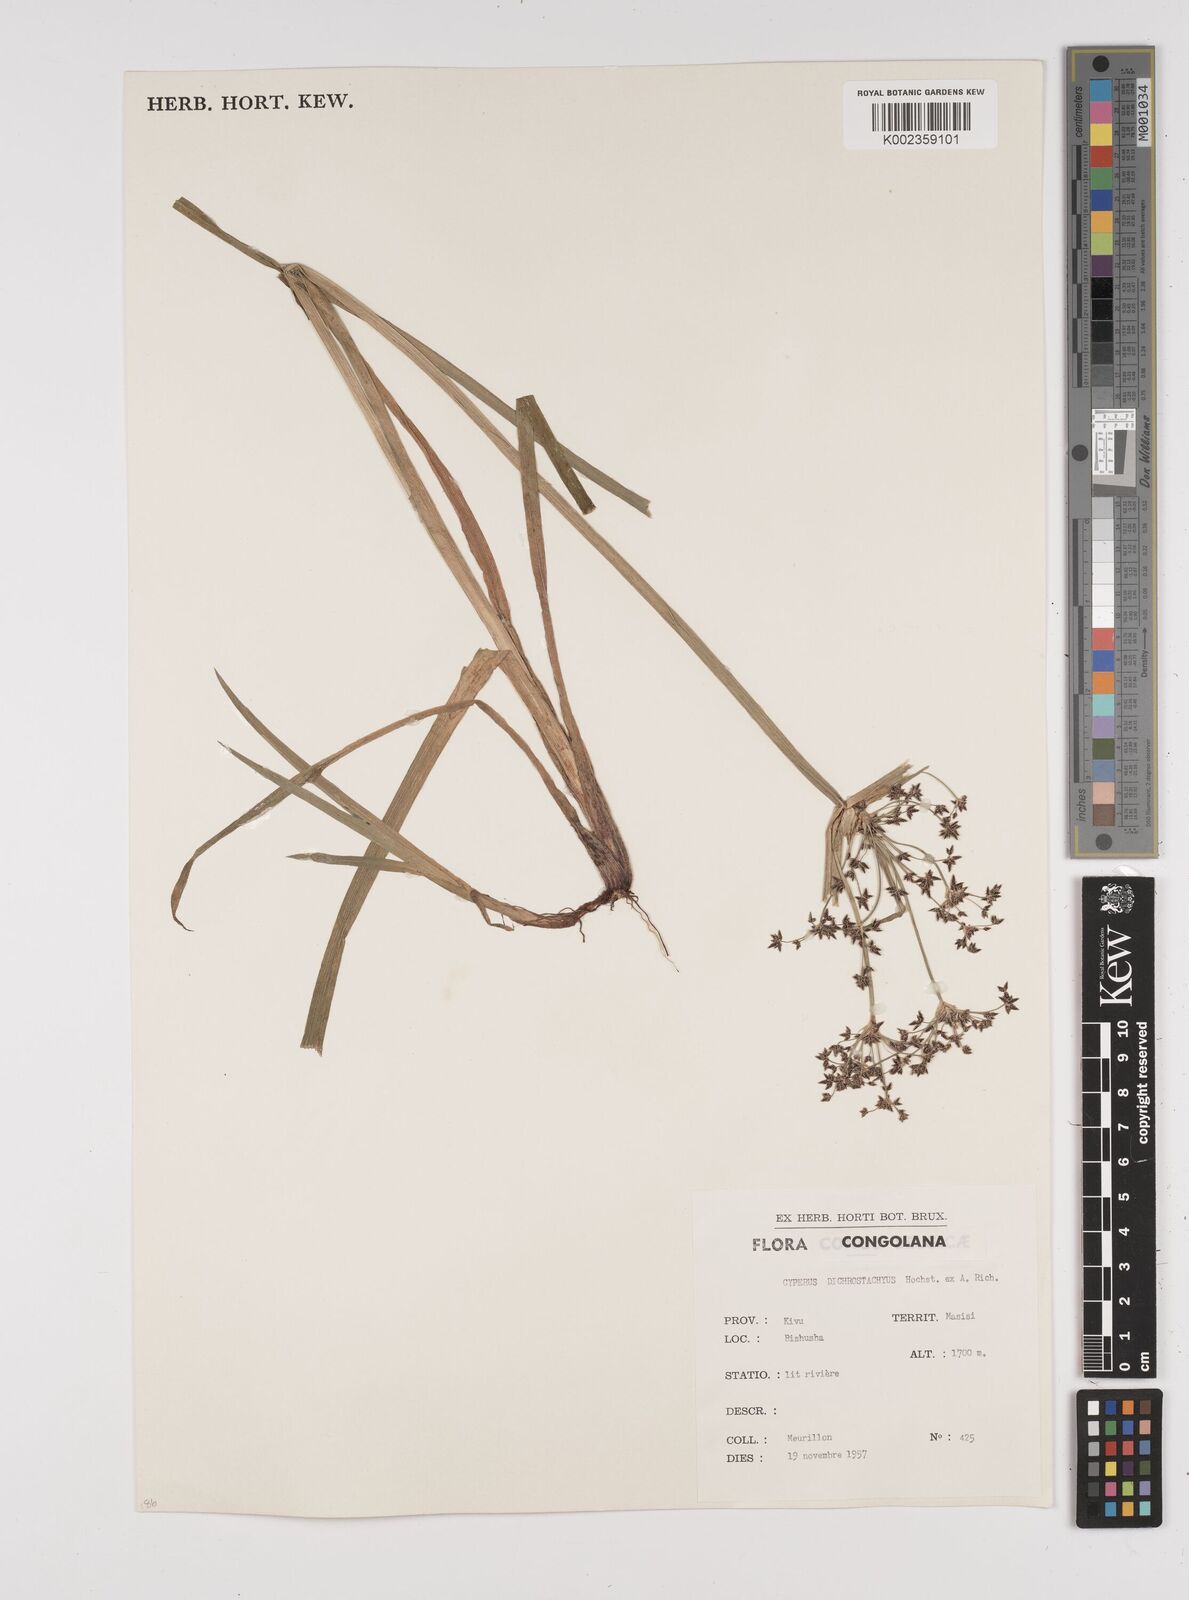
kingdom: Plantae
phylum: Tracheophyta
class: Liliopsida
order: Poales
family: Cyperaceae
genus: Cyperus
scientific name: Cyperus dichrostachyus
